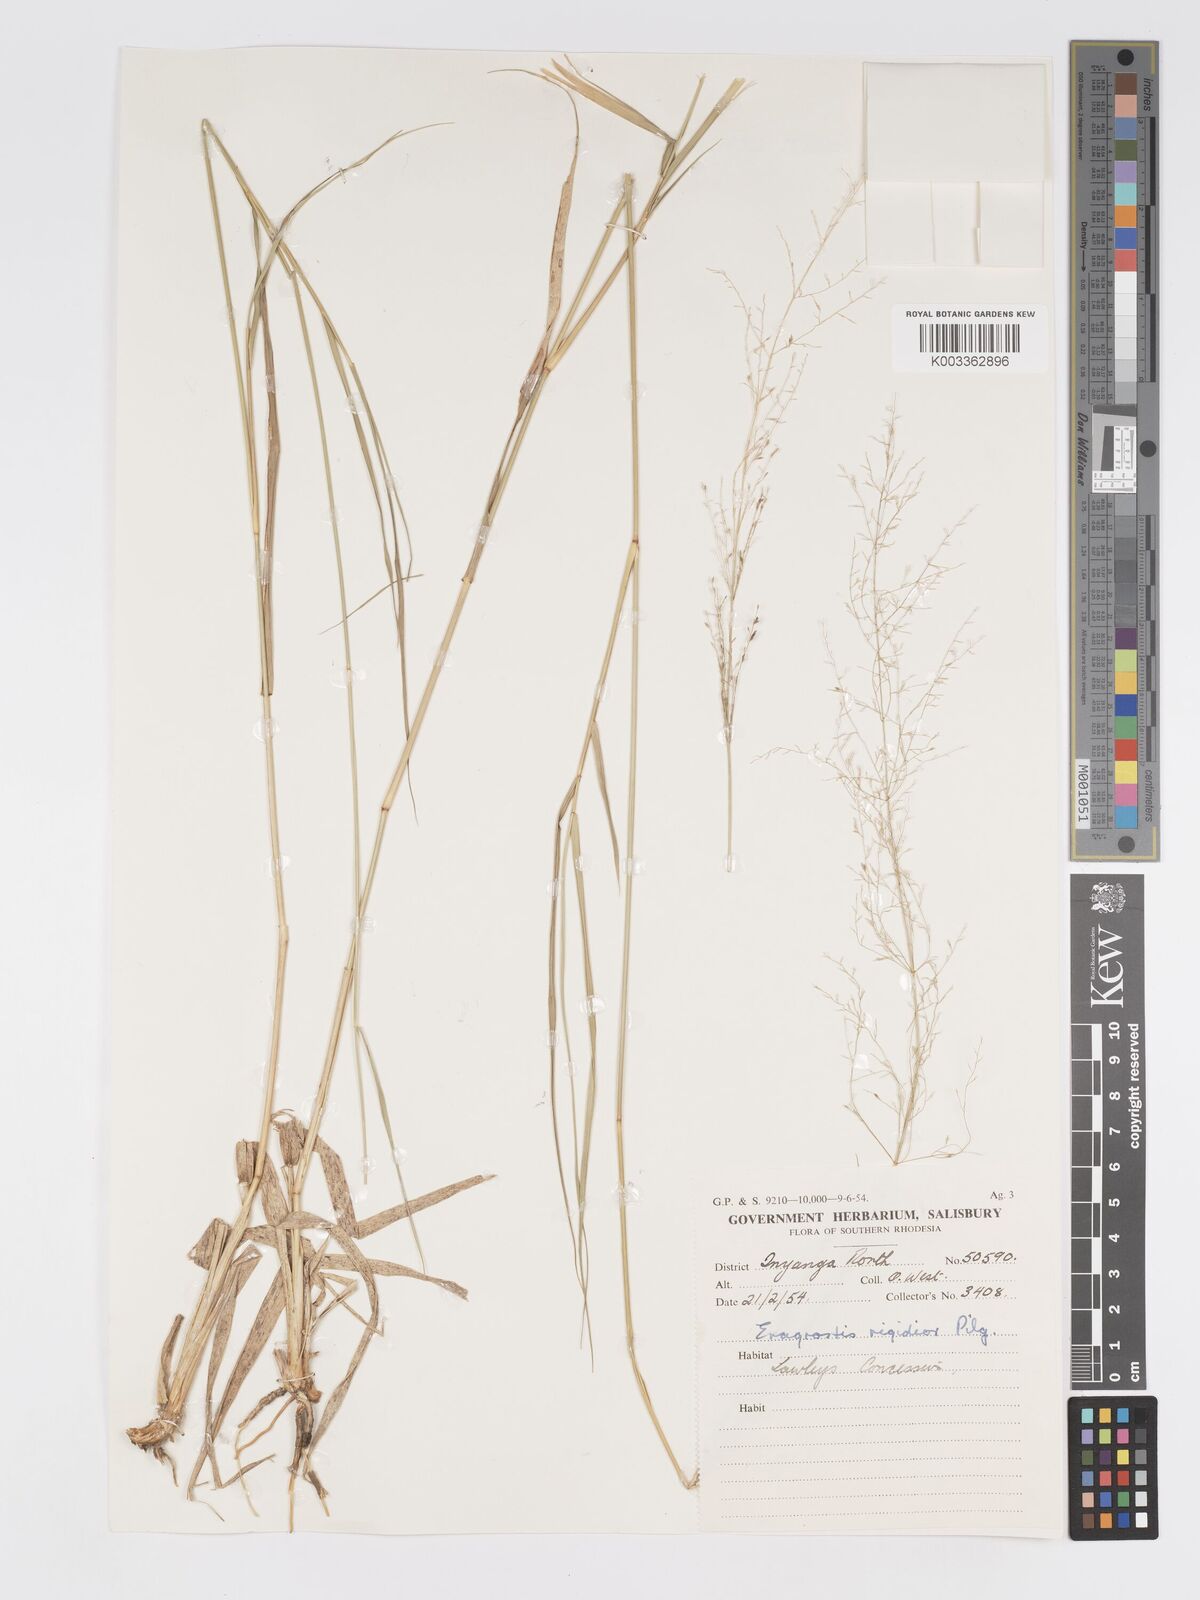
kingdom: Plantae
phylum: Tracheophyta
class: Liliopsida
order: Poales
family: Poaceae
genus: Eragrostis
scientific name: Eragrostis cylindriflora
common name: Cylinderflower lovegrass
